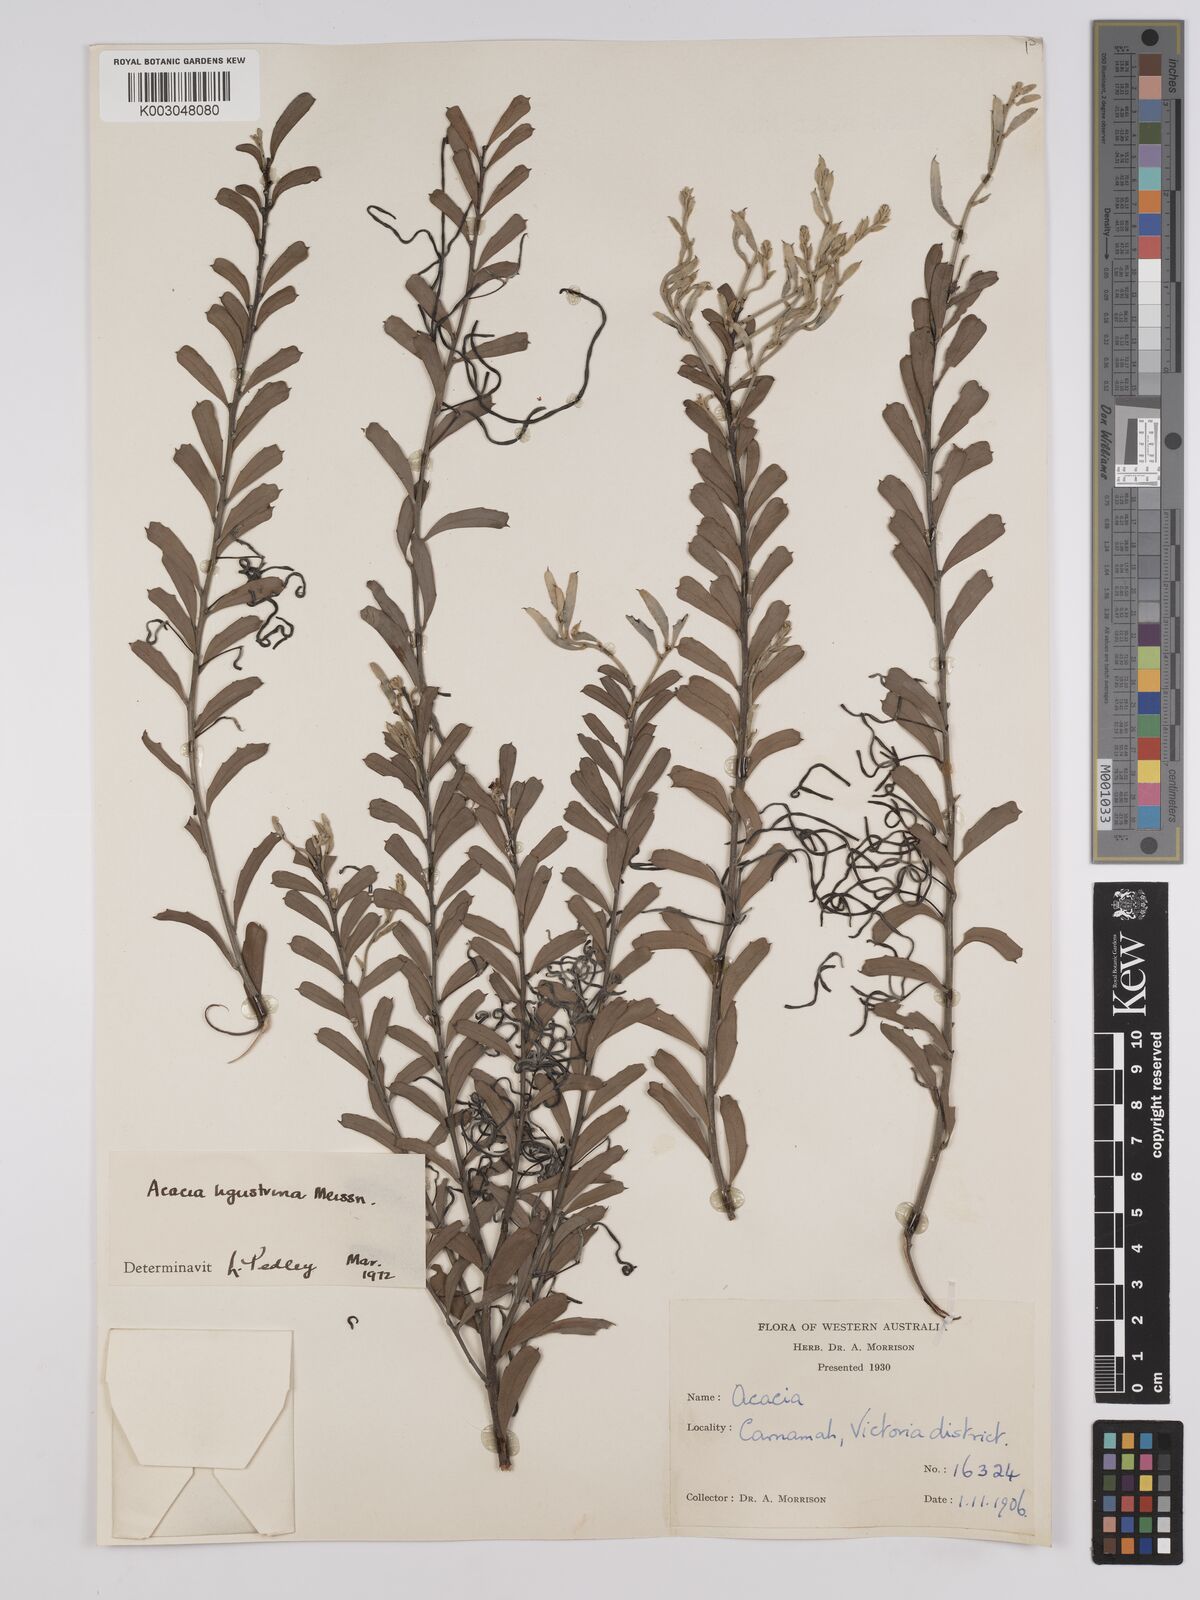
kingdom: Plantae
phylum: Tracheophyta
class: Magnoliopsida
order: Fabales
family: Fabaceae
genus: Acacia
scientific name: Acacia ligustrina
